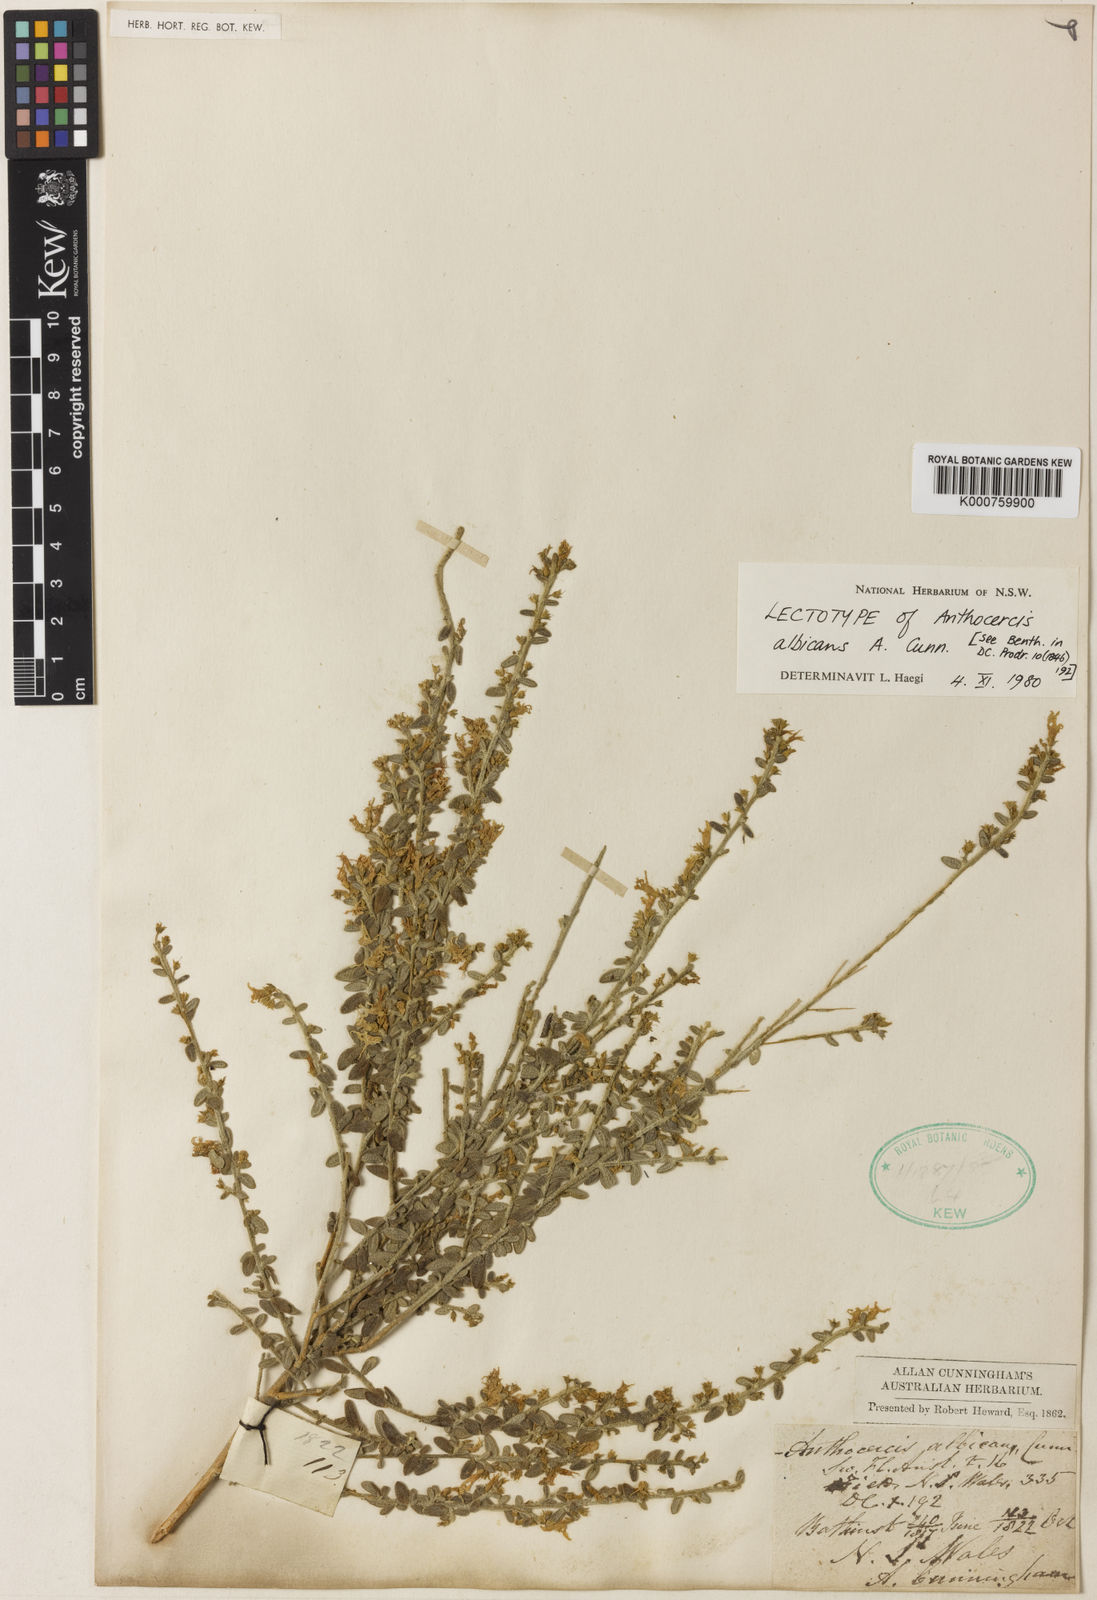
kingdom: Plantae
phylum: Tracheophyta
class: Magnoliopsida
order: Solanales
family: Solanaceae
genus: Cyphanthera
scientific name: Cyphanthera albicans
